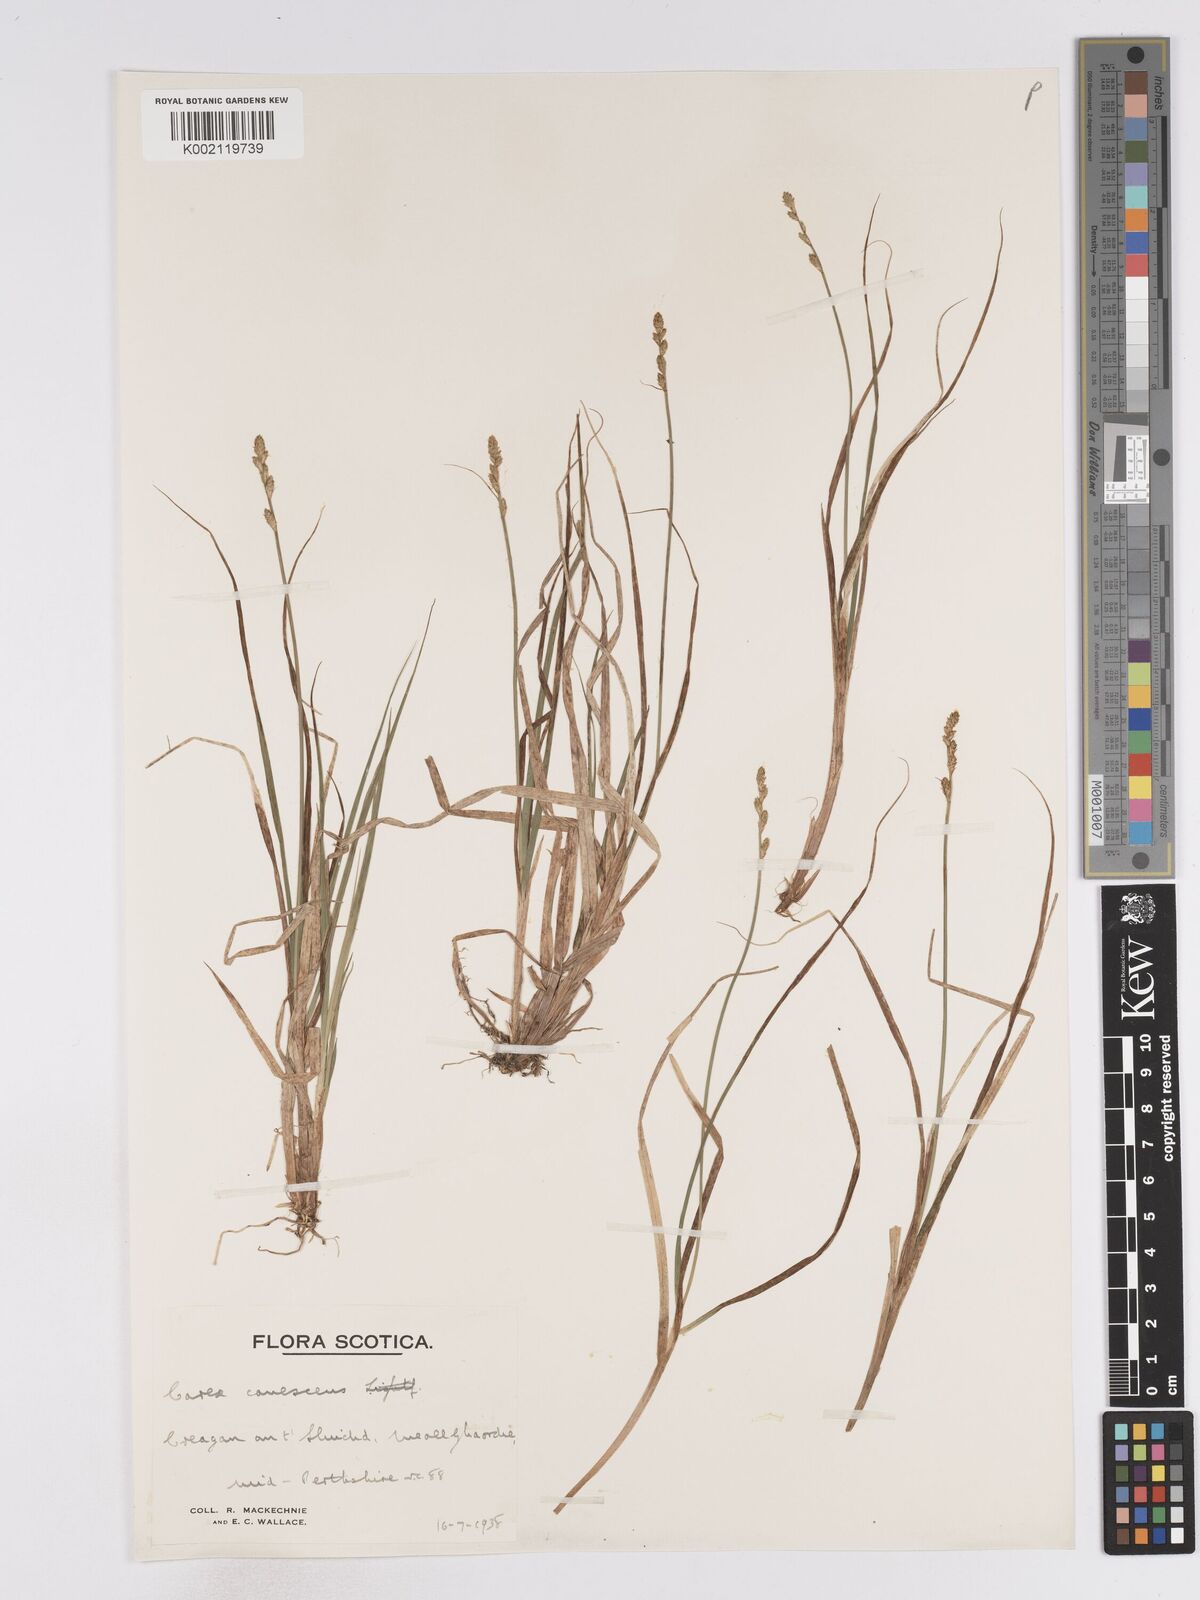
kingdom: Plantae
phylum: Tracheophyta
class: Liliopsida
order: Poales
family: Cyperaceae
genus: Carex
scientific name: Carex curta
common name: White sedge
